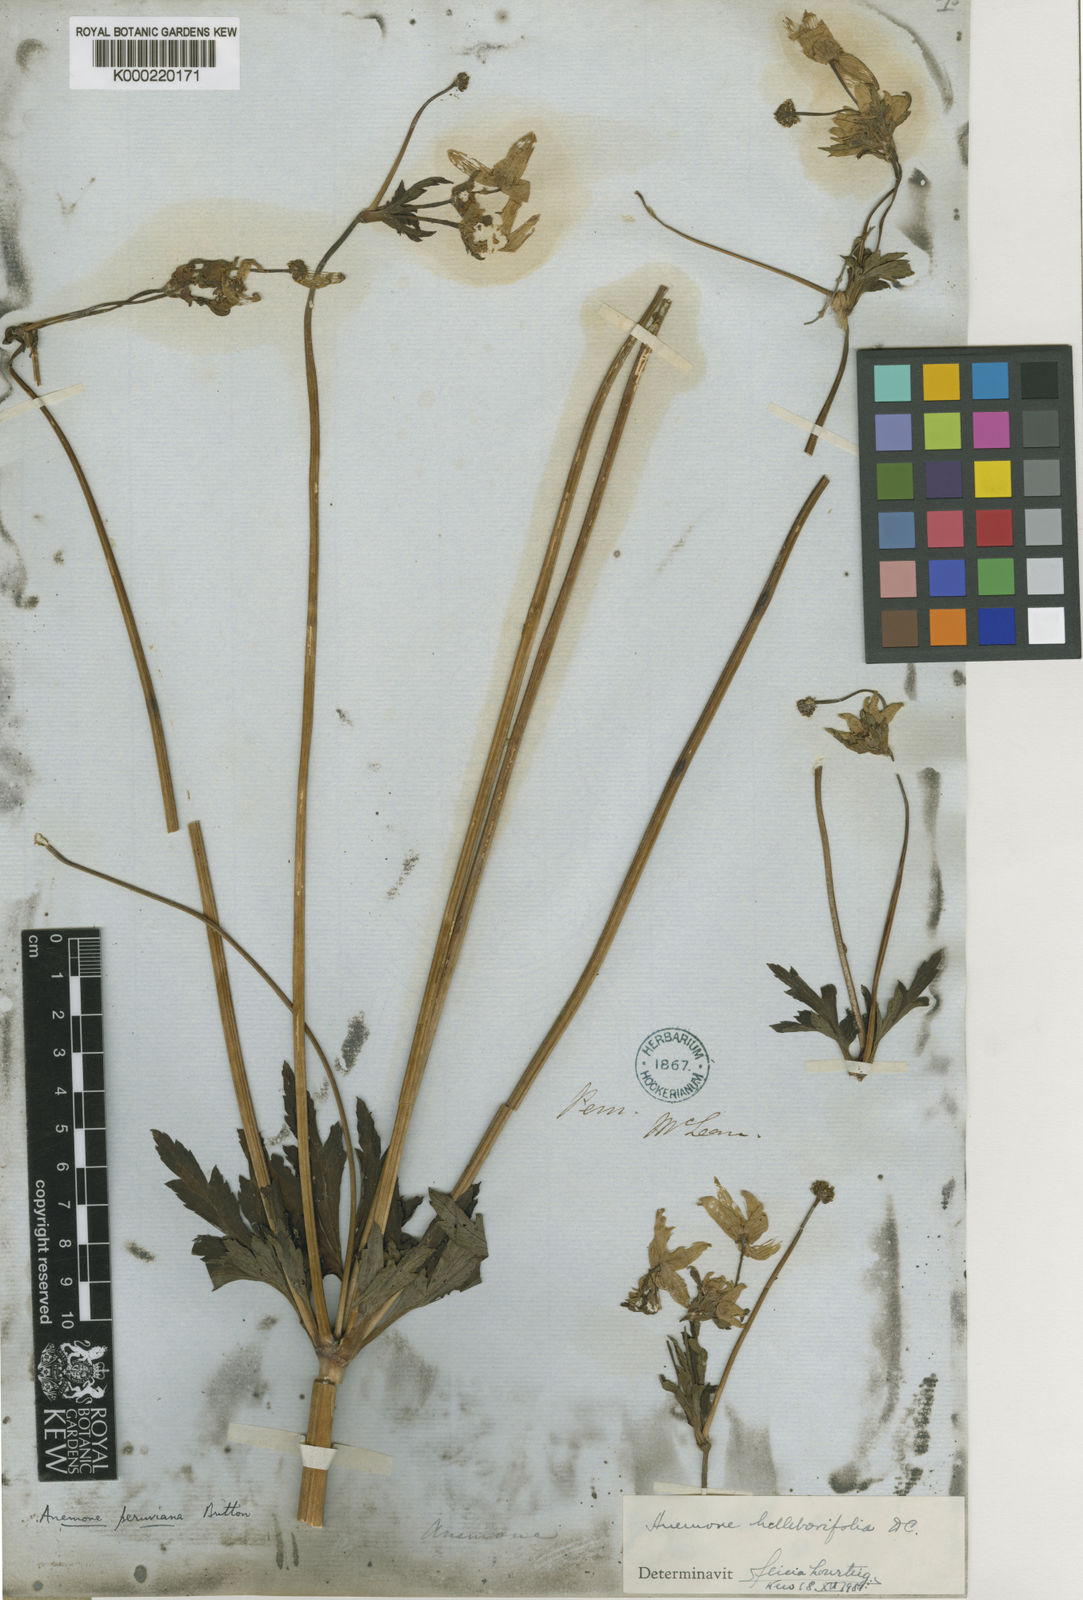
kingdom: Plantae
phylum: Tracheophyta
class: Magnoliopsida
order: Ranunculales
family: Ranunculaceae
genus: Knowltonia
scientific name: Knowltonia helleborifolia
